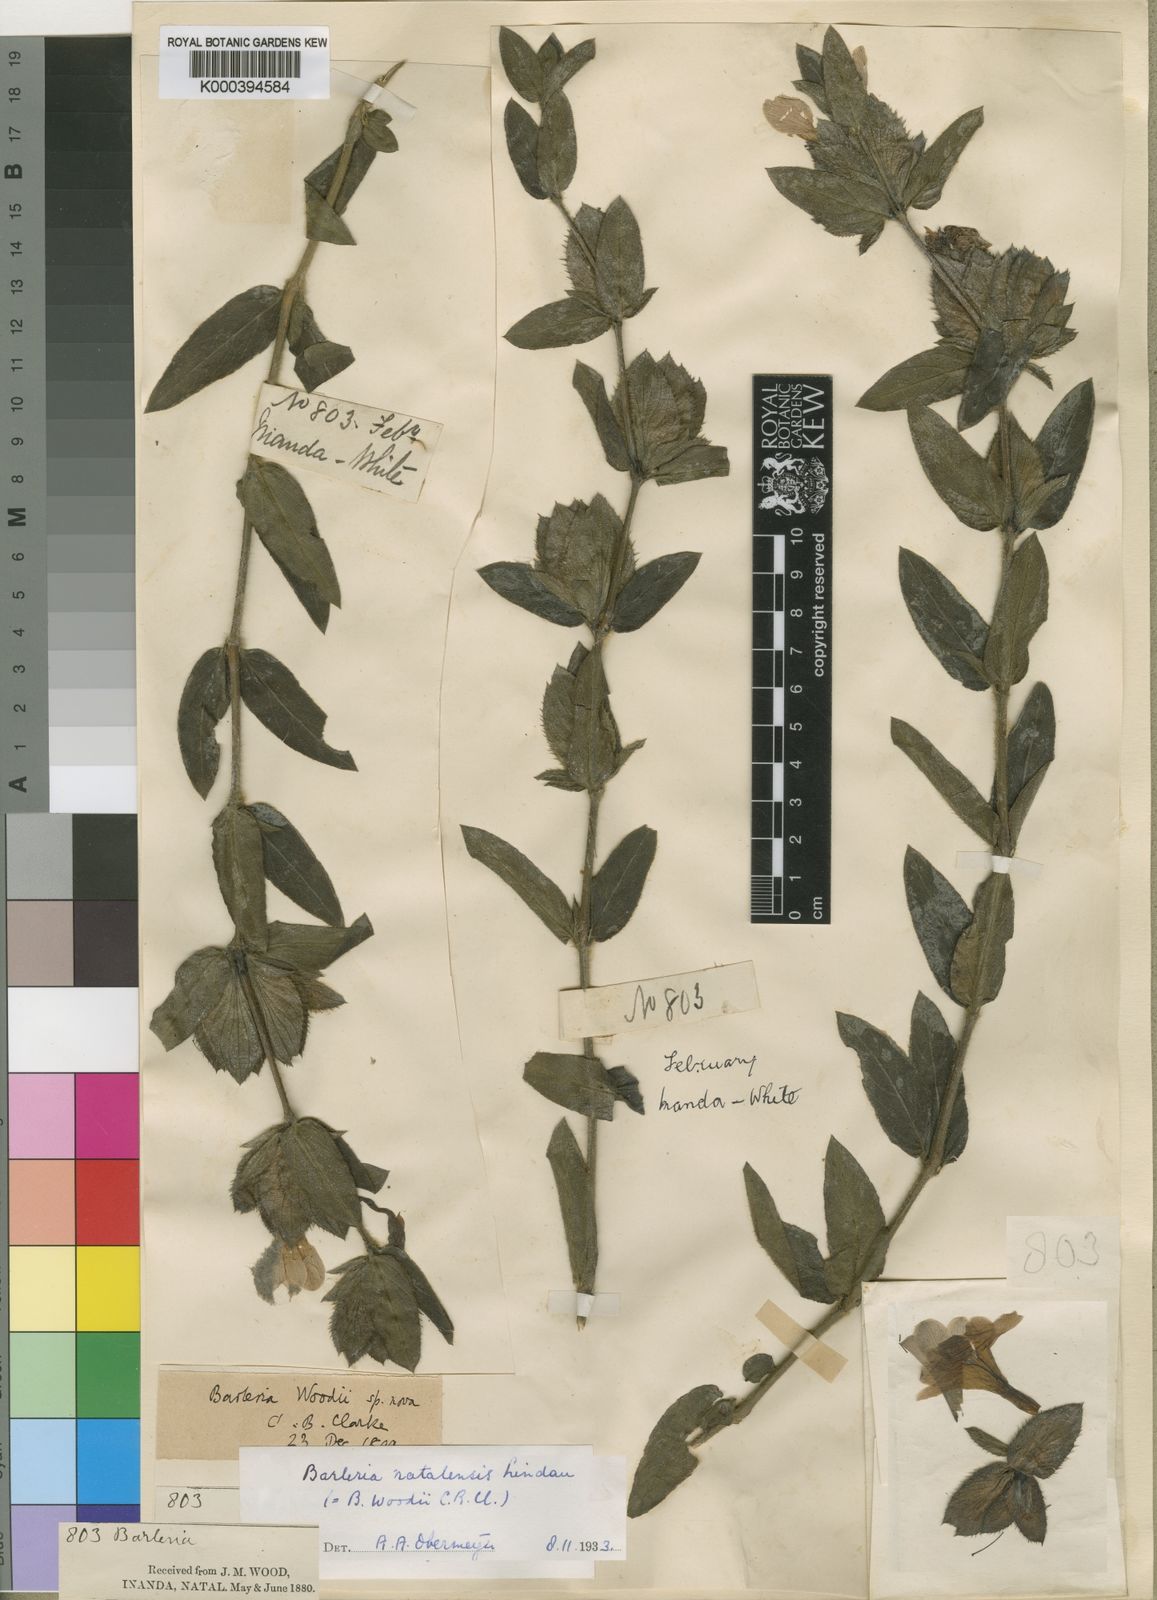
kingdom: Plantae
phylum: Tracheophyta
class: Magnoliopsida
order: Lamiales
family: Acanthaceae
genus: Barleria
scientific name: Barleria natalensis
